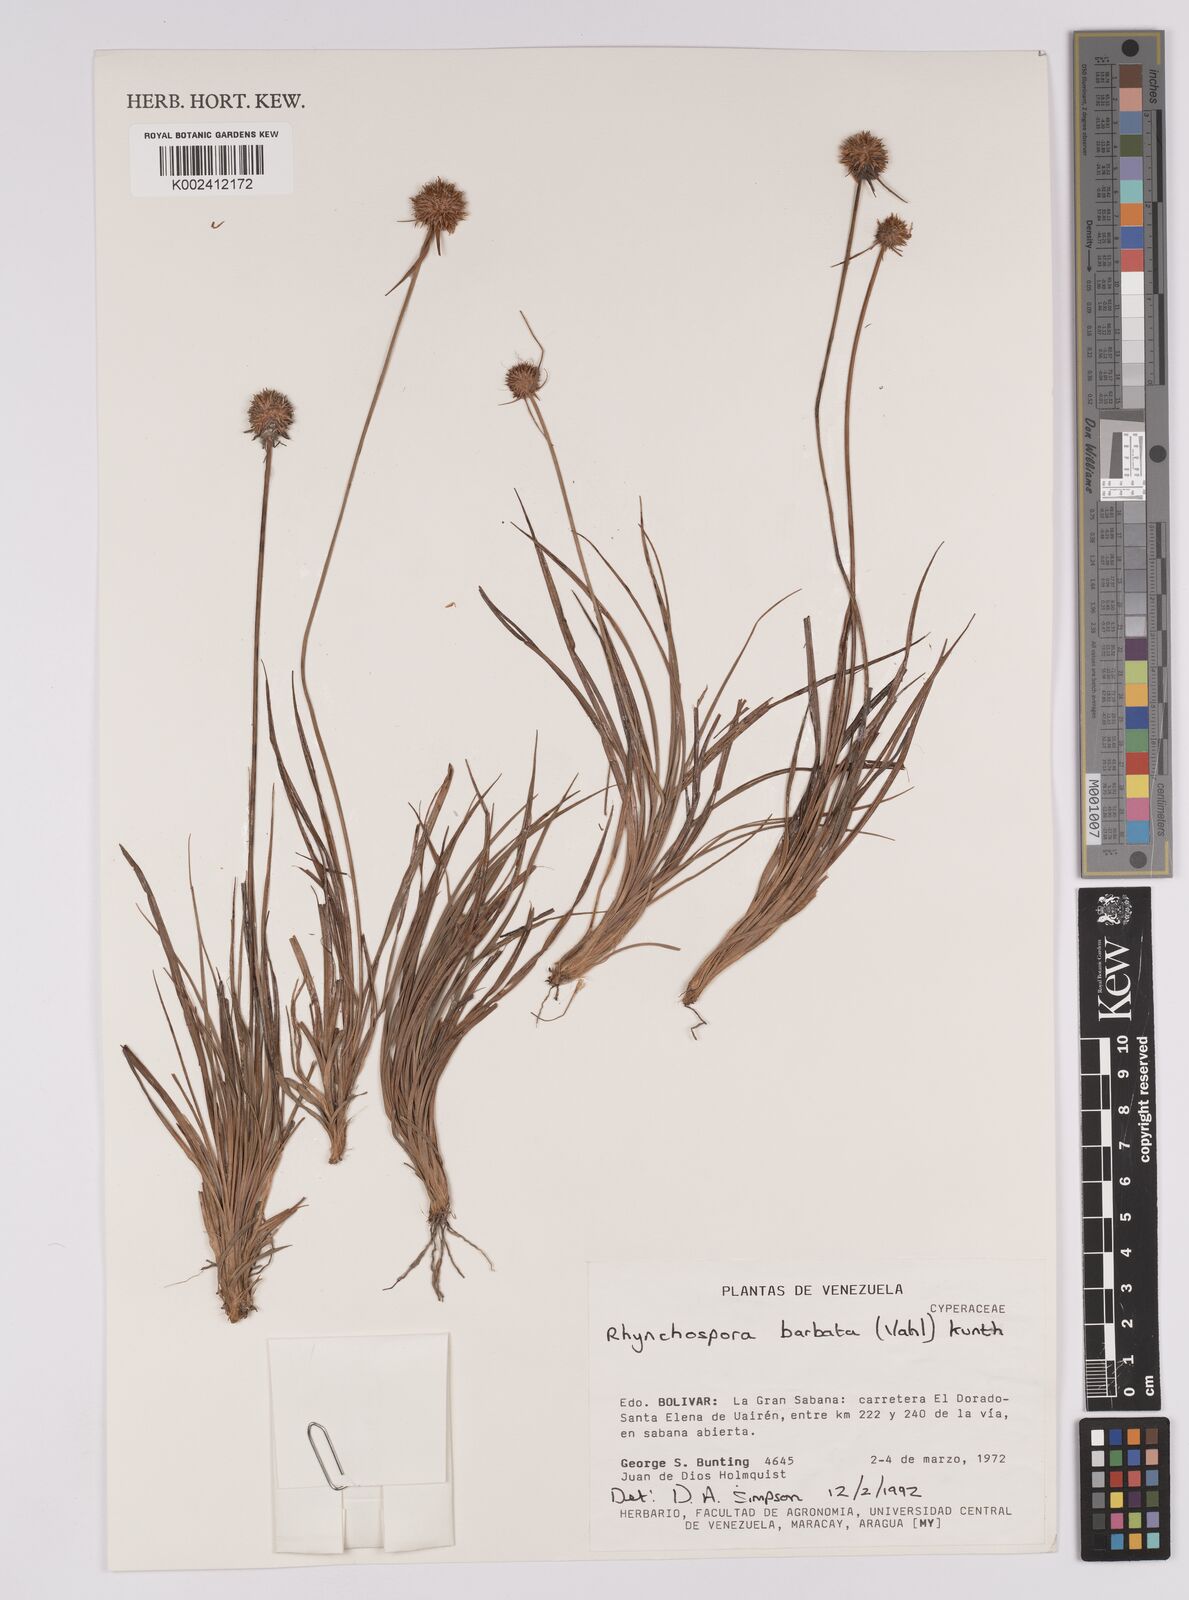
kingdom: Plantae
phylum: Tracheophyta
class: Liliopsida
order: Poales
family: Cyperaceae
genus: Rhynchospora
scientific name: Rhynchospora barbata
